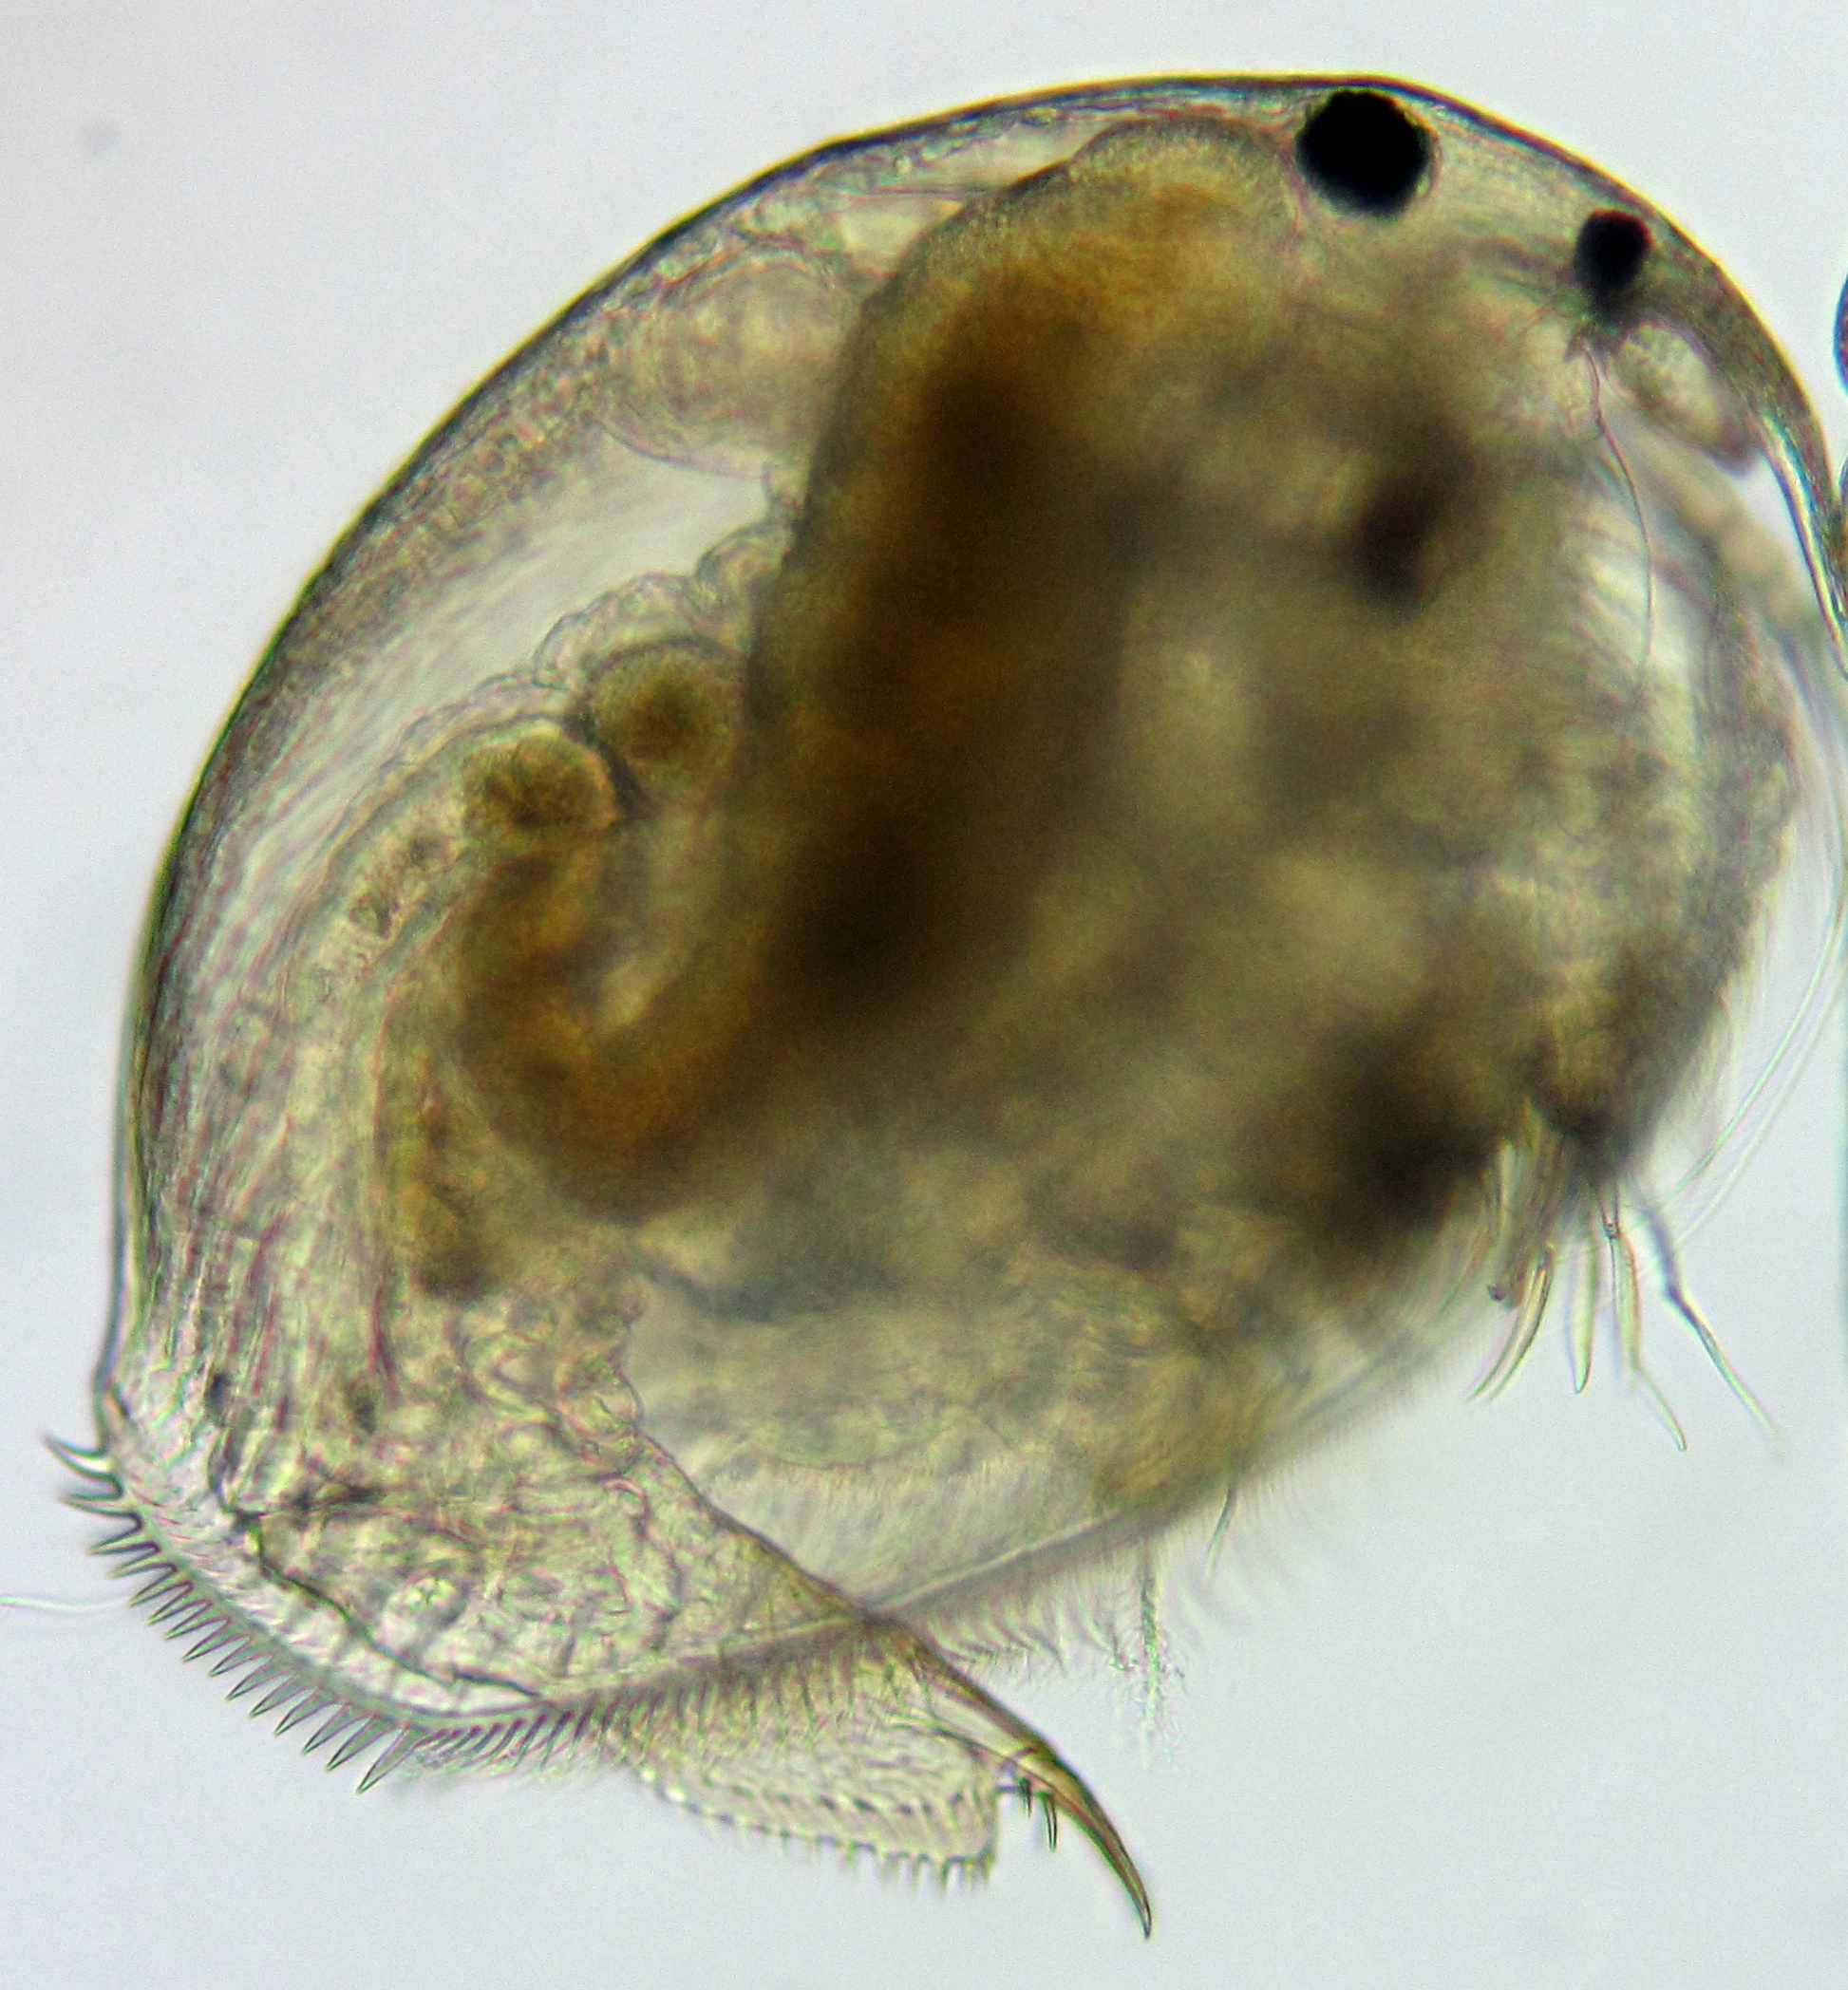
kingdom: Animalia
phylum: Arthropoda
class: Branchiopoda
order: Diplostraca
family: Chydoridae
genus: Peracantha
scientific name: Peracantha truncata
